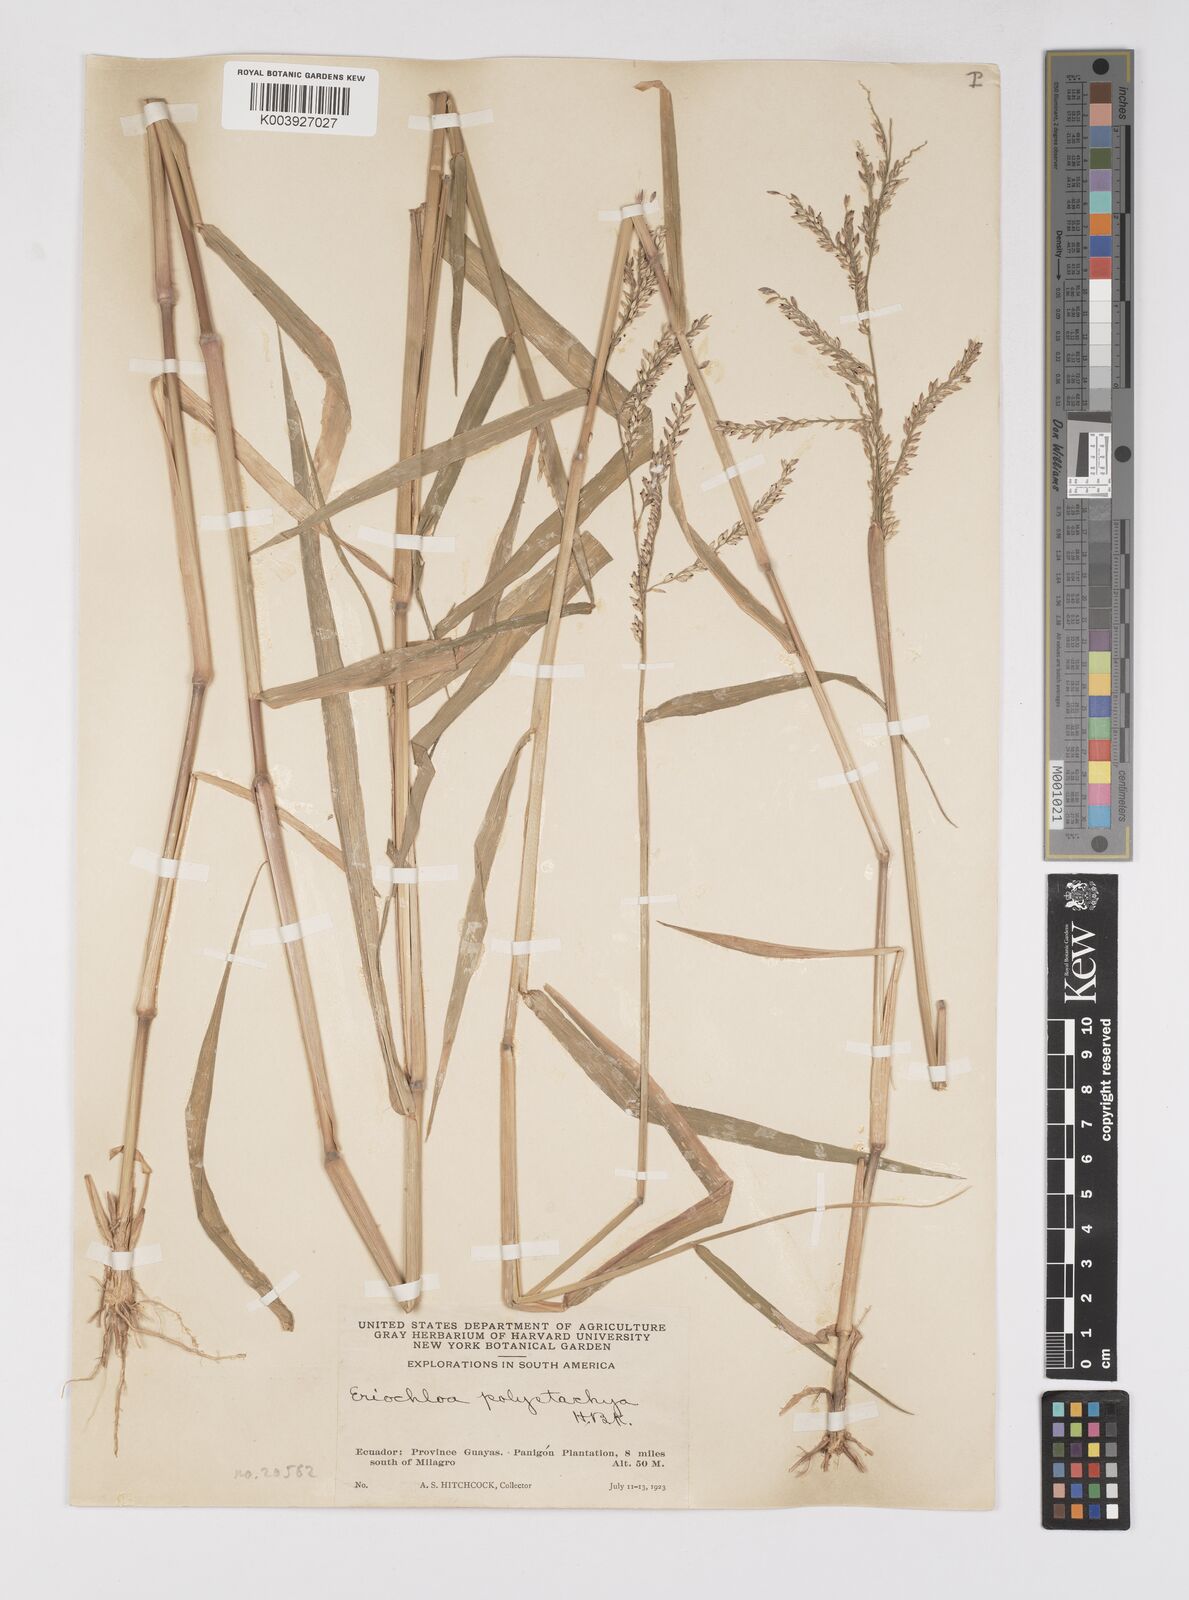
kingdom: Plantae
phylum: Tracheophyta
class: Liliopsida
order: Poales
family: Poaceae
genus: Urochloa
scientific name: Urochloa polystachya
